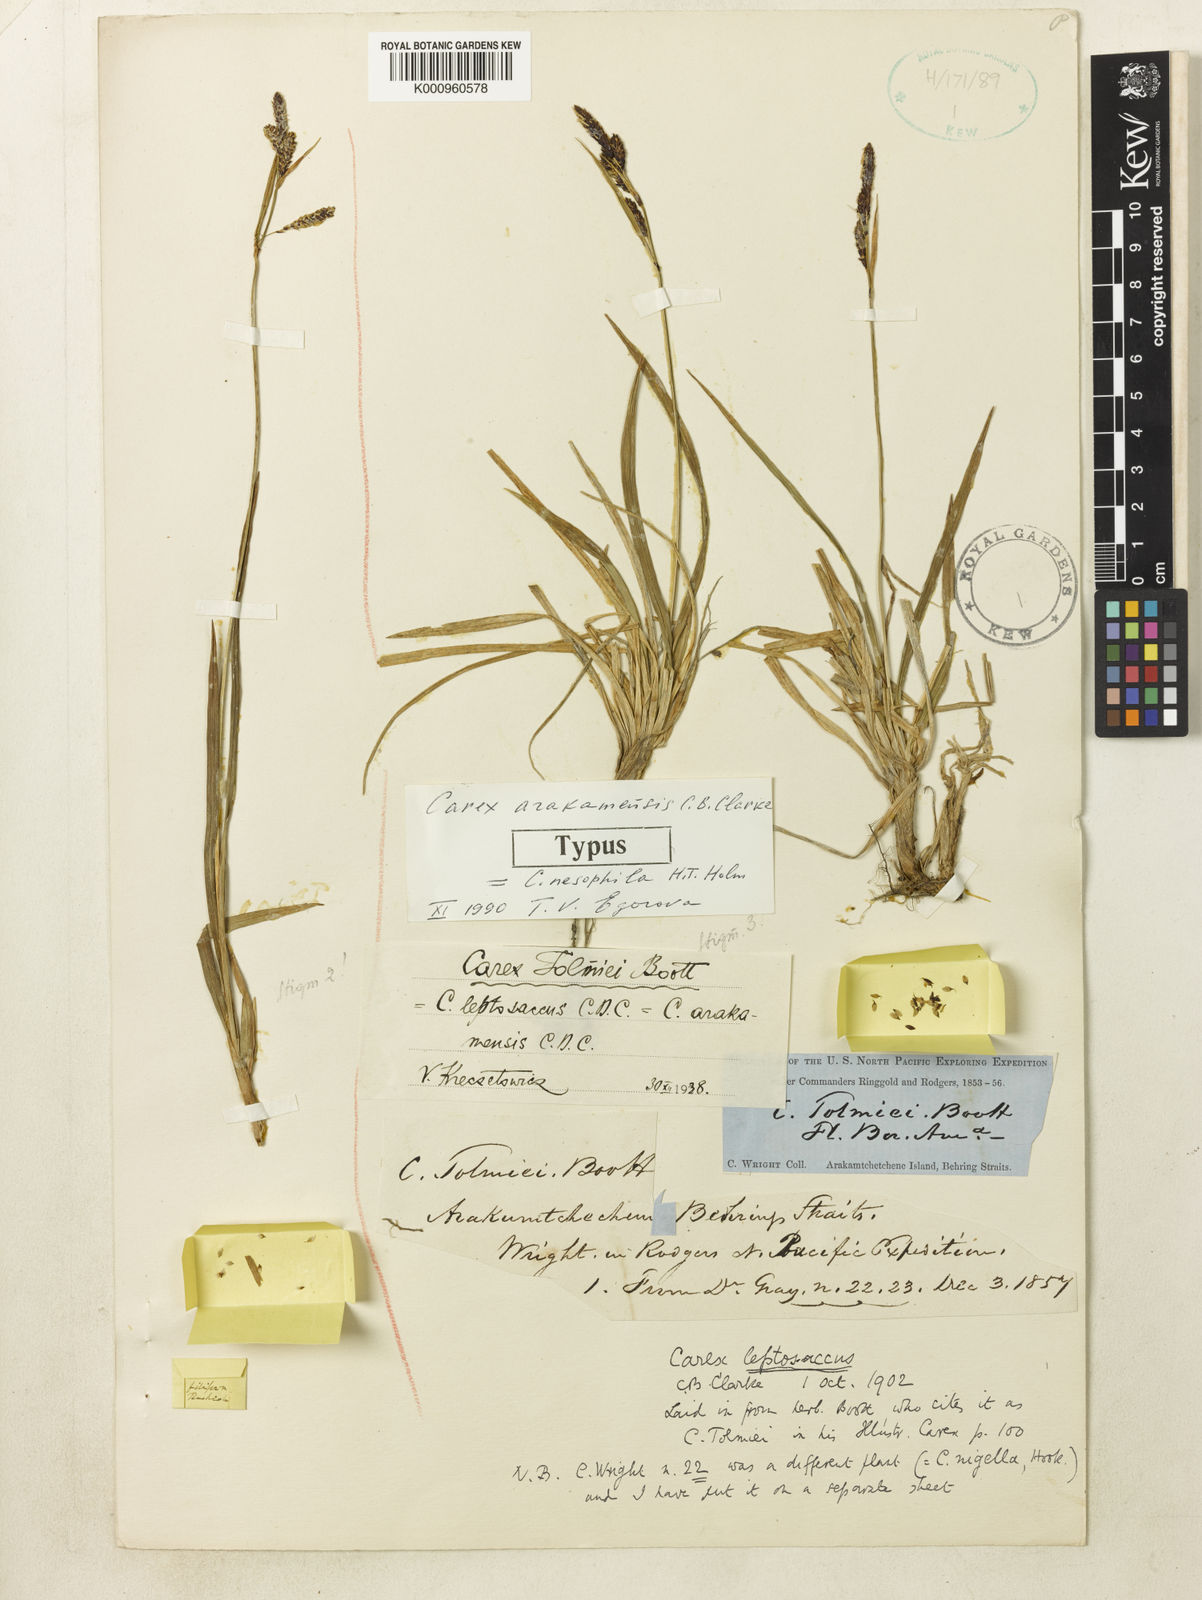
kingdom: Plantae
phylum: Tracheophyta
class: Liliopsida
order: Poales
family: Cyperaceae
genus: Carex
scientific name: Carex microchaeta
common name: Bering sea sedge
